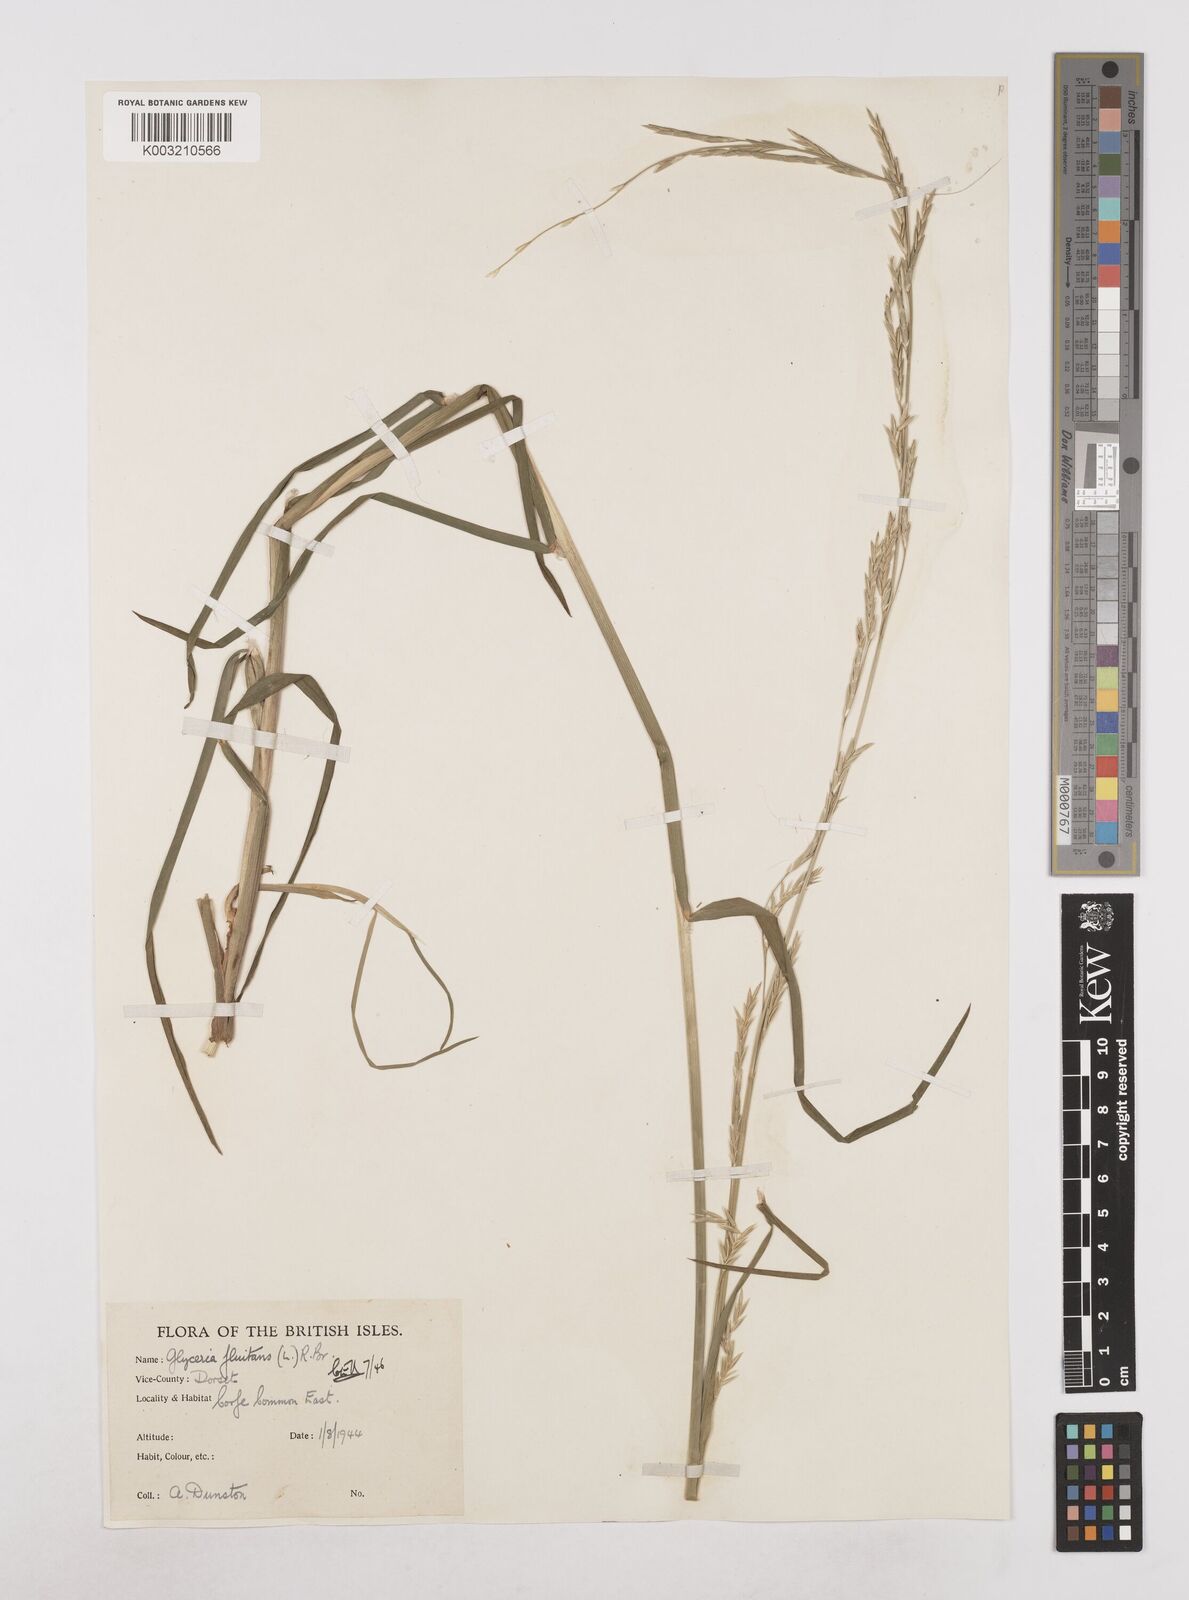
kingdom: Plantae
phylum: Tracheophyta
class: Liliopsida
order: Poales
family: Poaceae
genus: Glyceria
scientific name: Glyceria fluitans
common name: Floating sweet-grass
